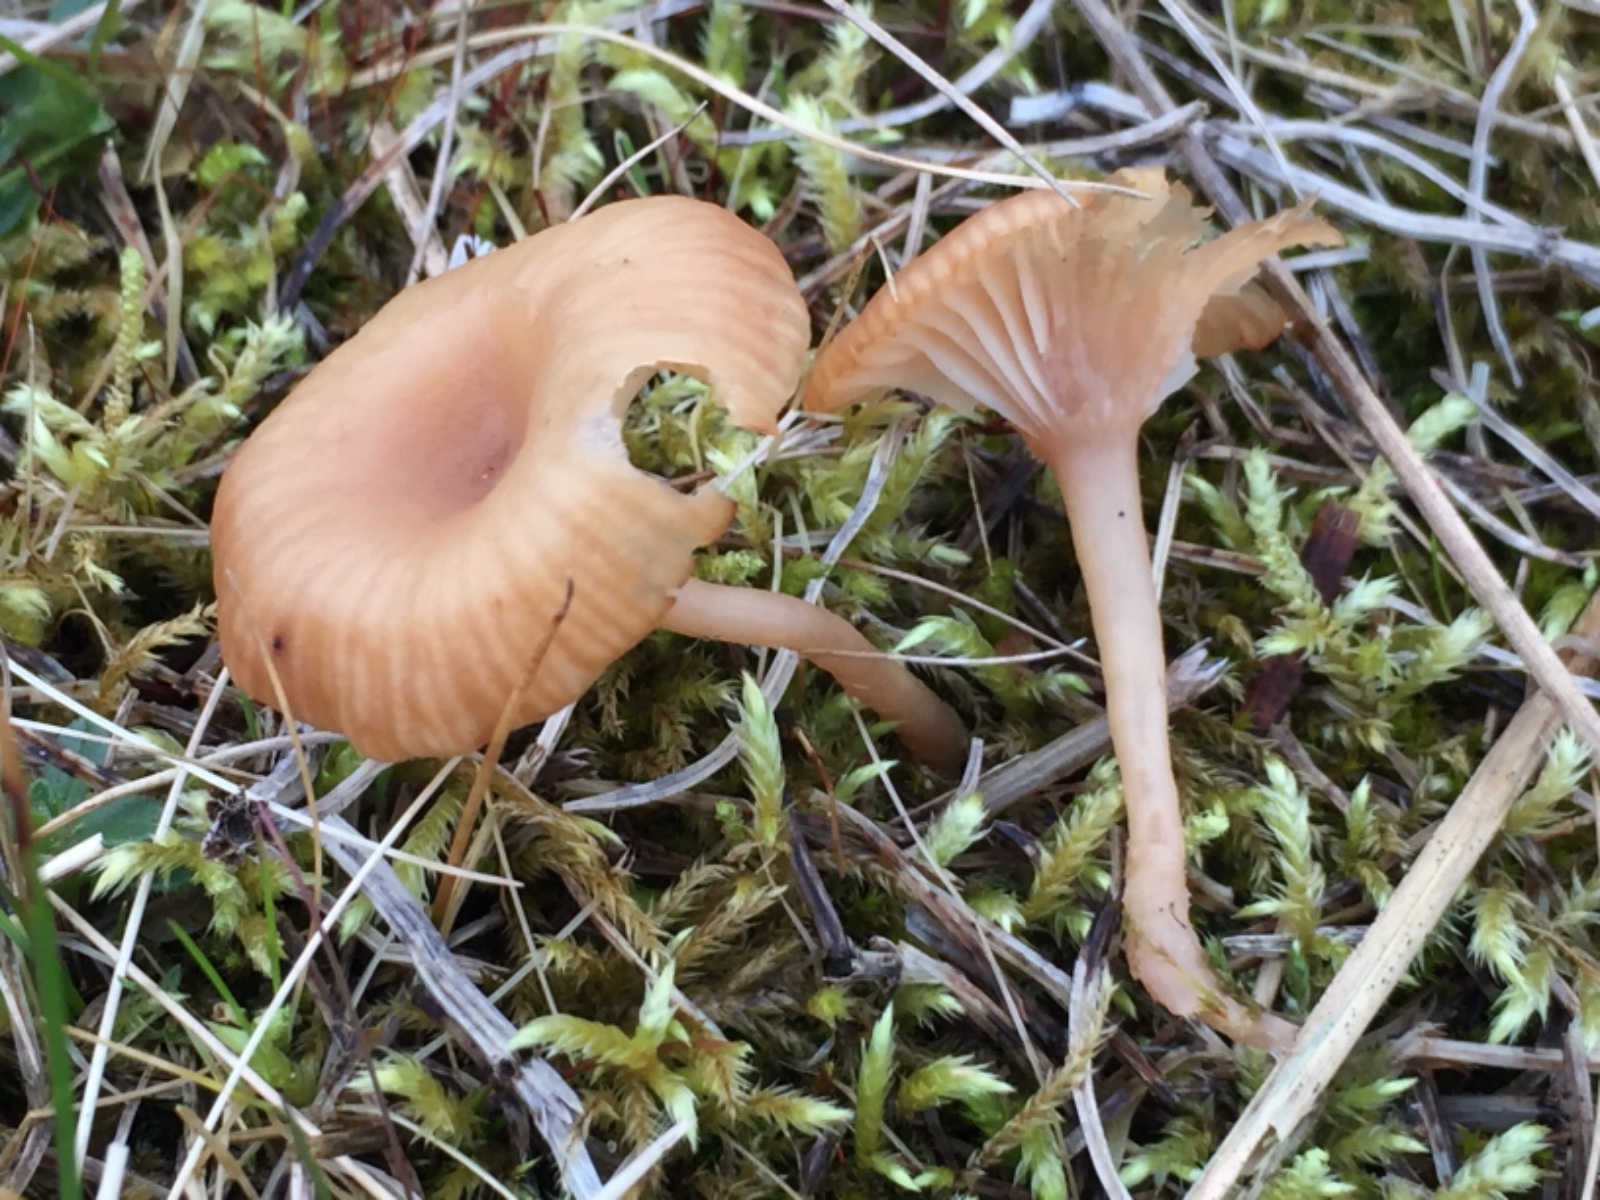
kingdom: Fungi
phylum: Basidiomycota
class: Agaricomycetes
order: Agaricales
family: Tricholomataceae
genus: Omphalina
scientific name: Omphalina pyxidata
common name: rødbrun navlehat
